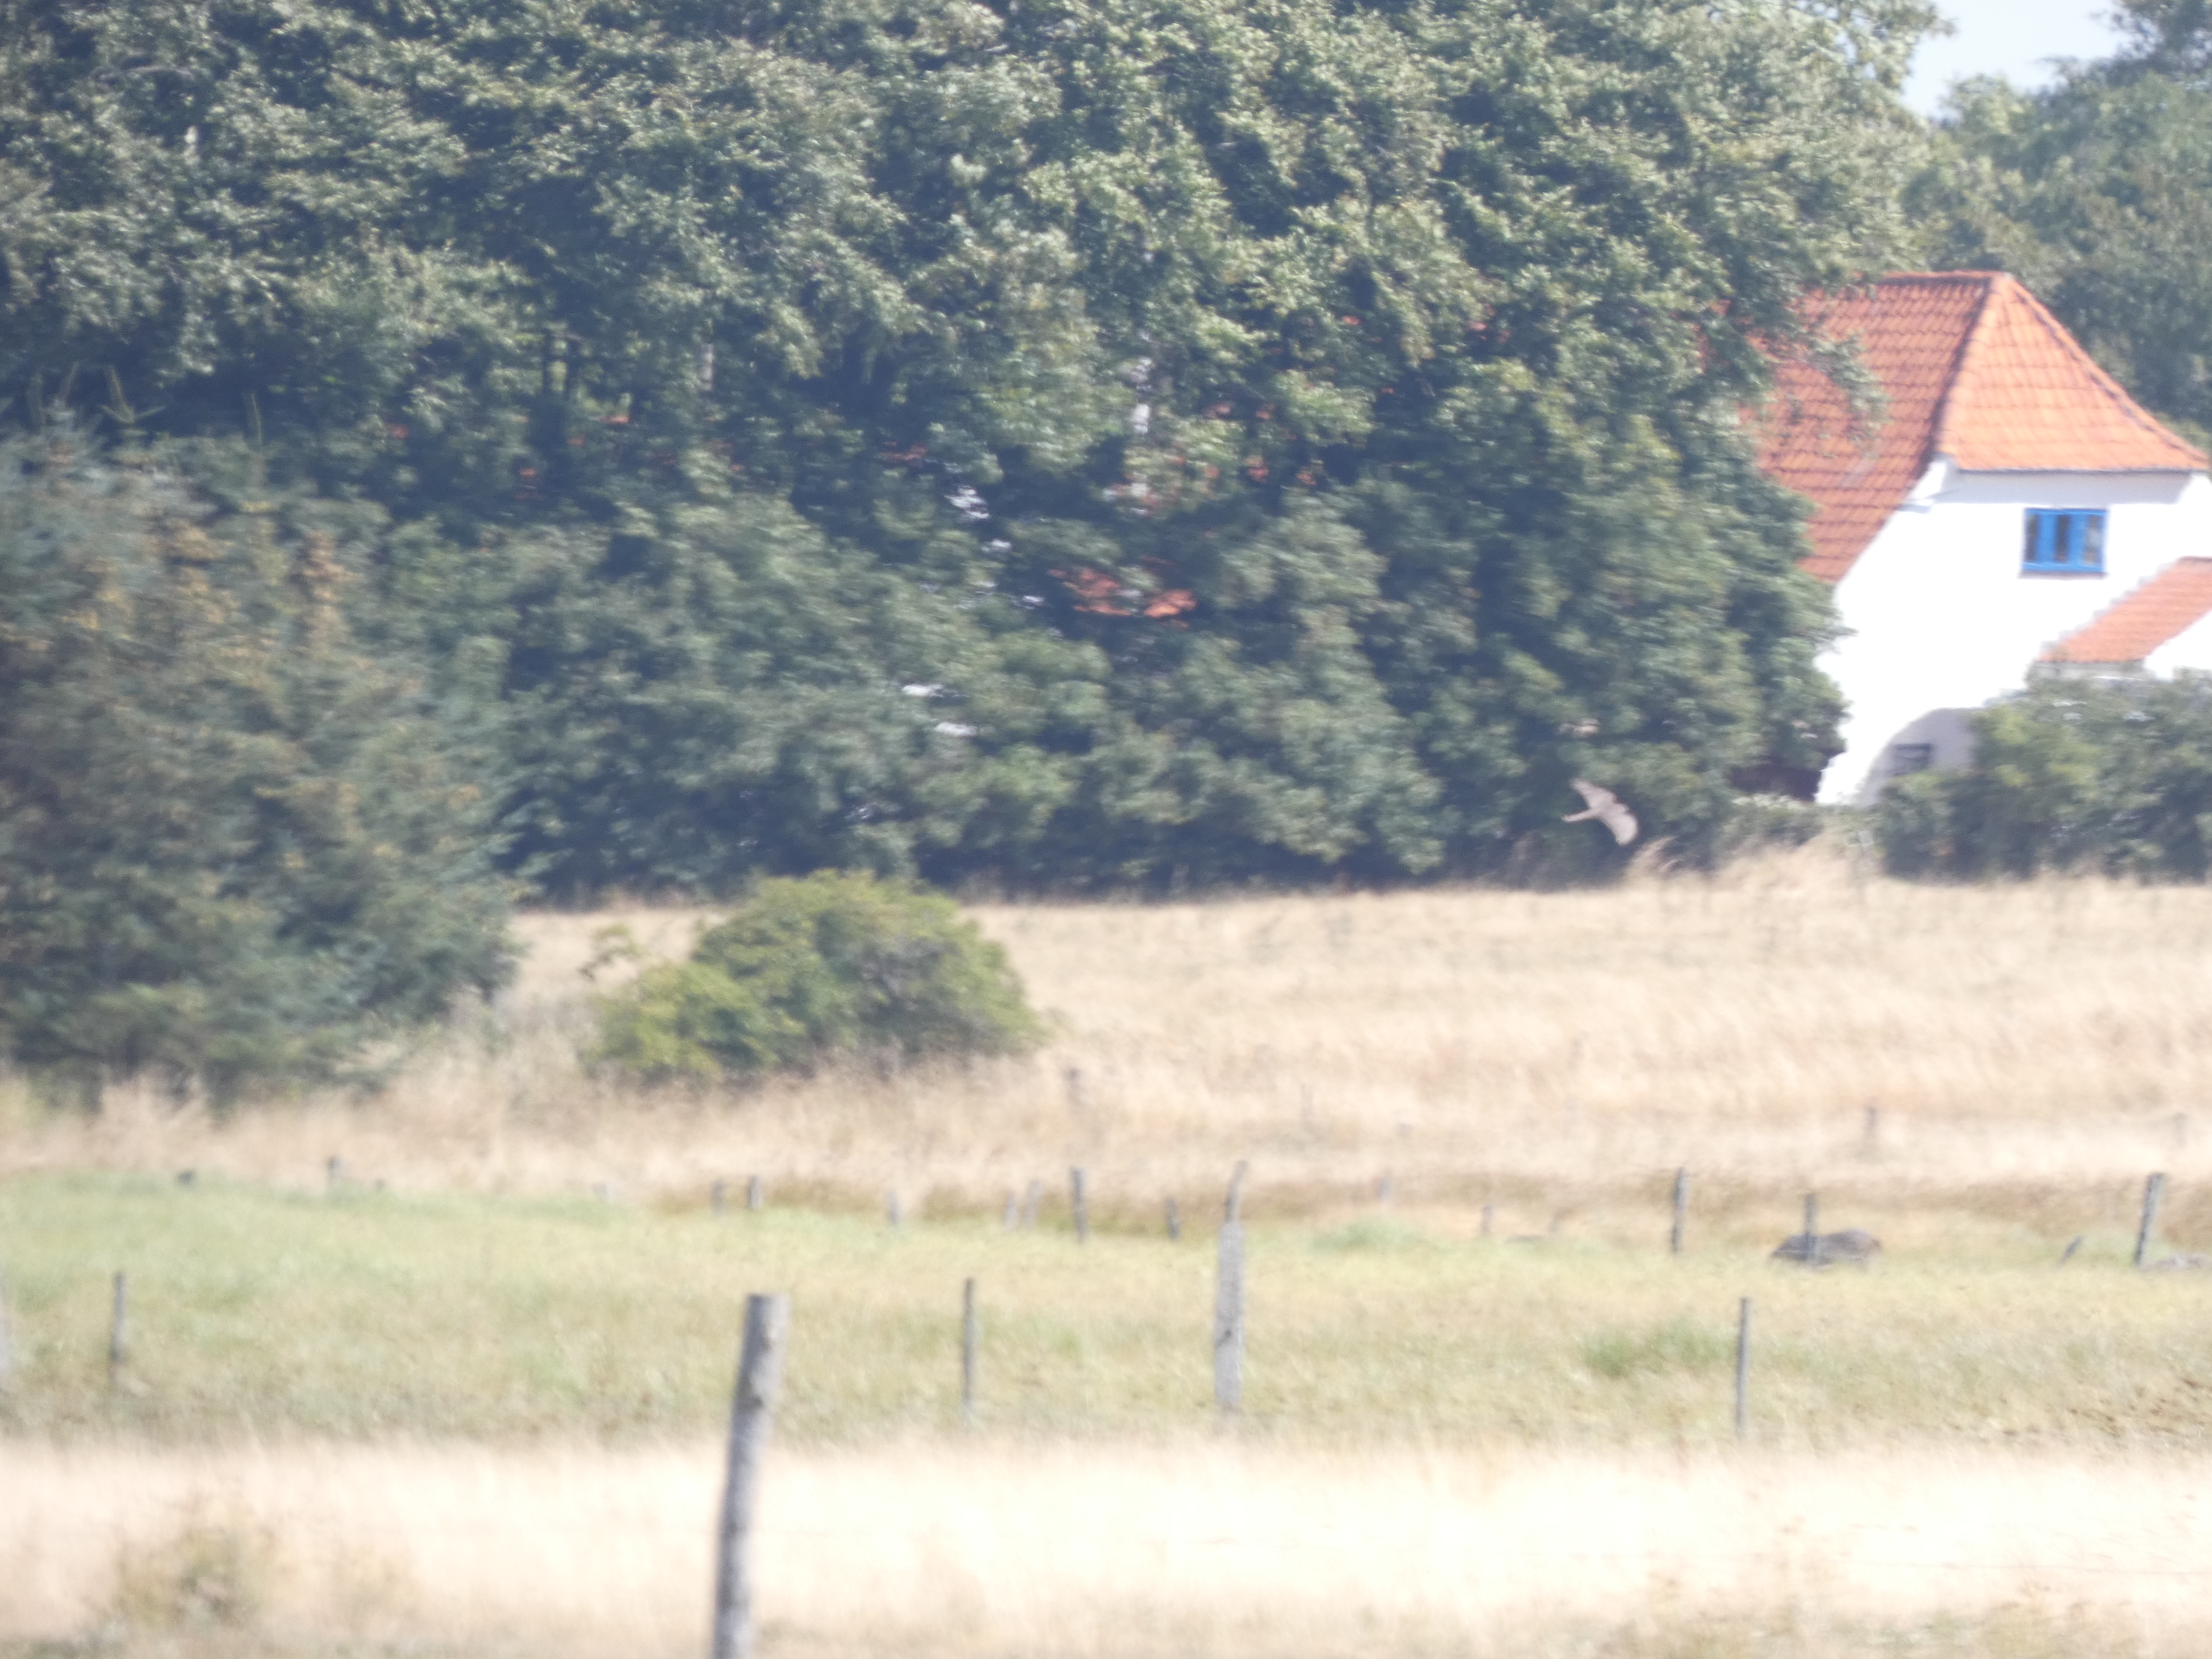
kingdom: Animalia
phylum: Chordata
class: Aves
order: Accipitriformes
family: Accipitridae
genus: Accipiter
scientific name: Accipiter nisus
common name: Spurvehøg
